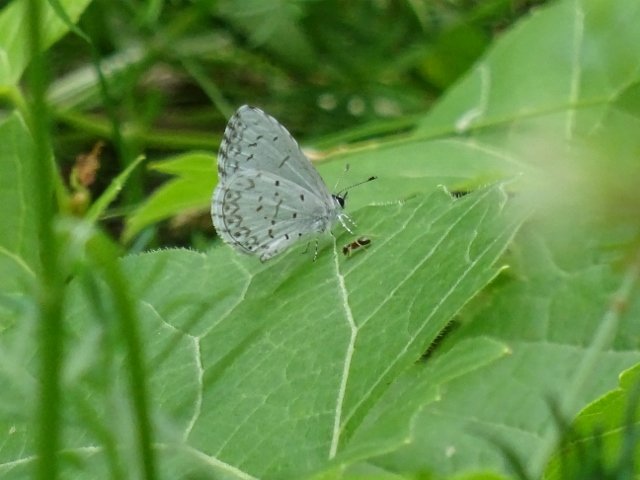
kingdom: Animalia
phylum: Arthropoda
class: Insecta
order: Lepidoptera
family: Lycaenidae
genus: Celastrina
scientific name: Celastrina lucia
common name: Northern Spring Azure
